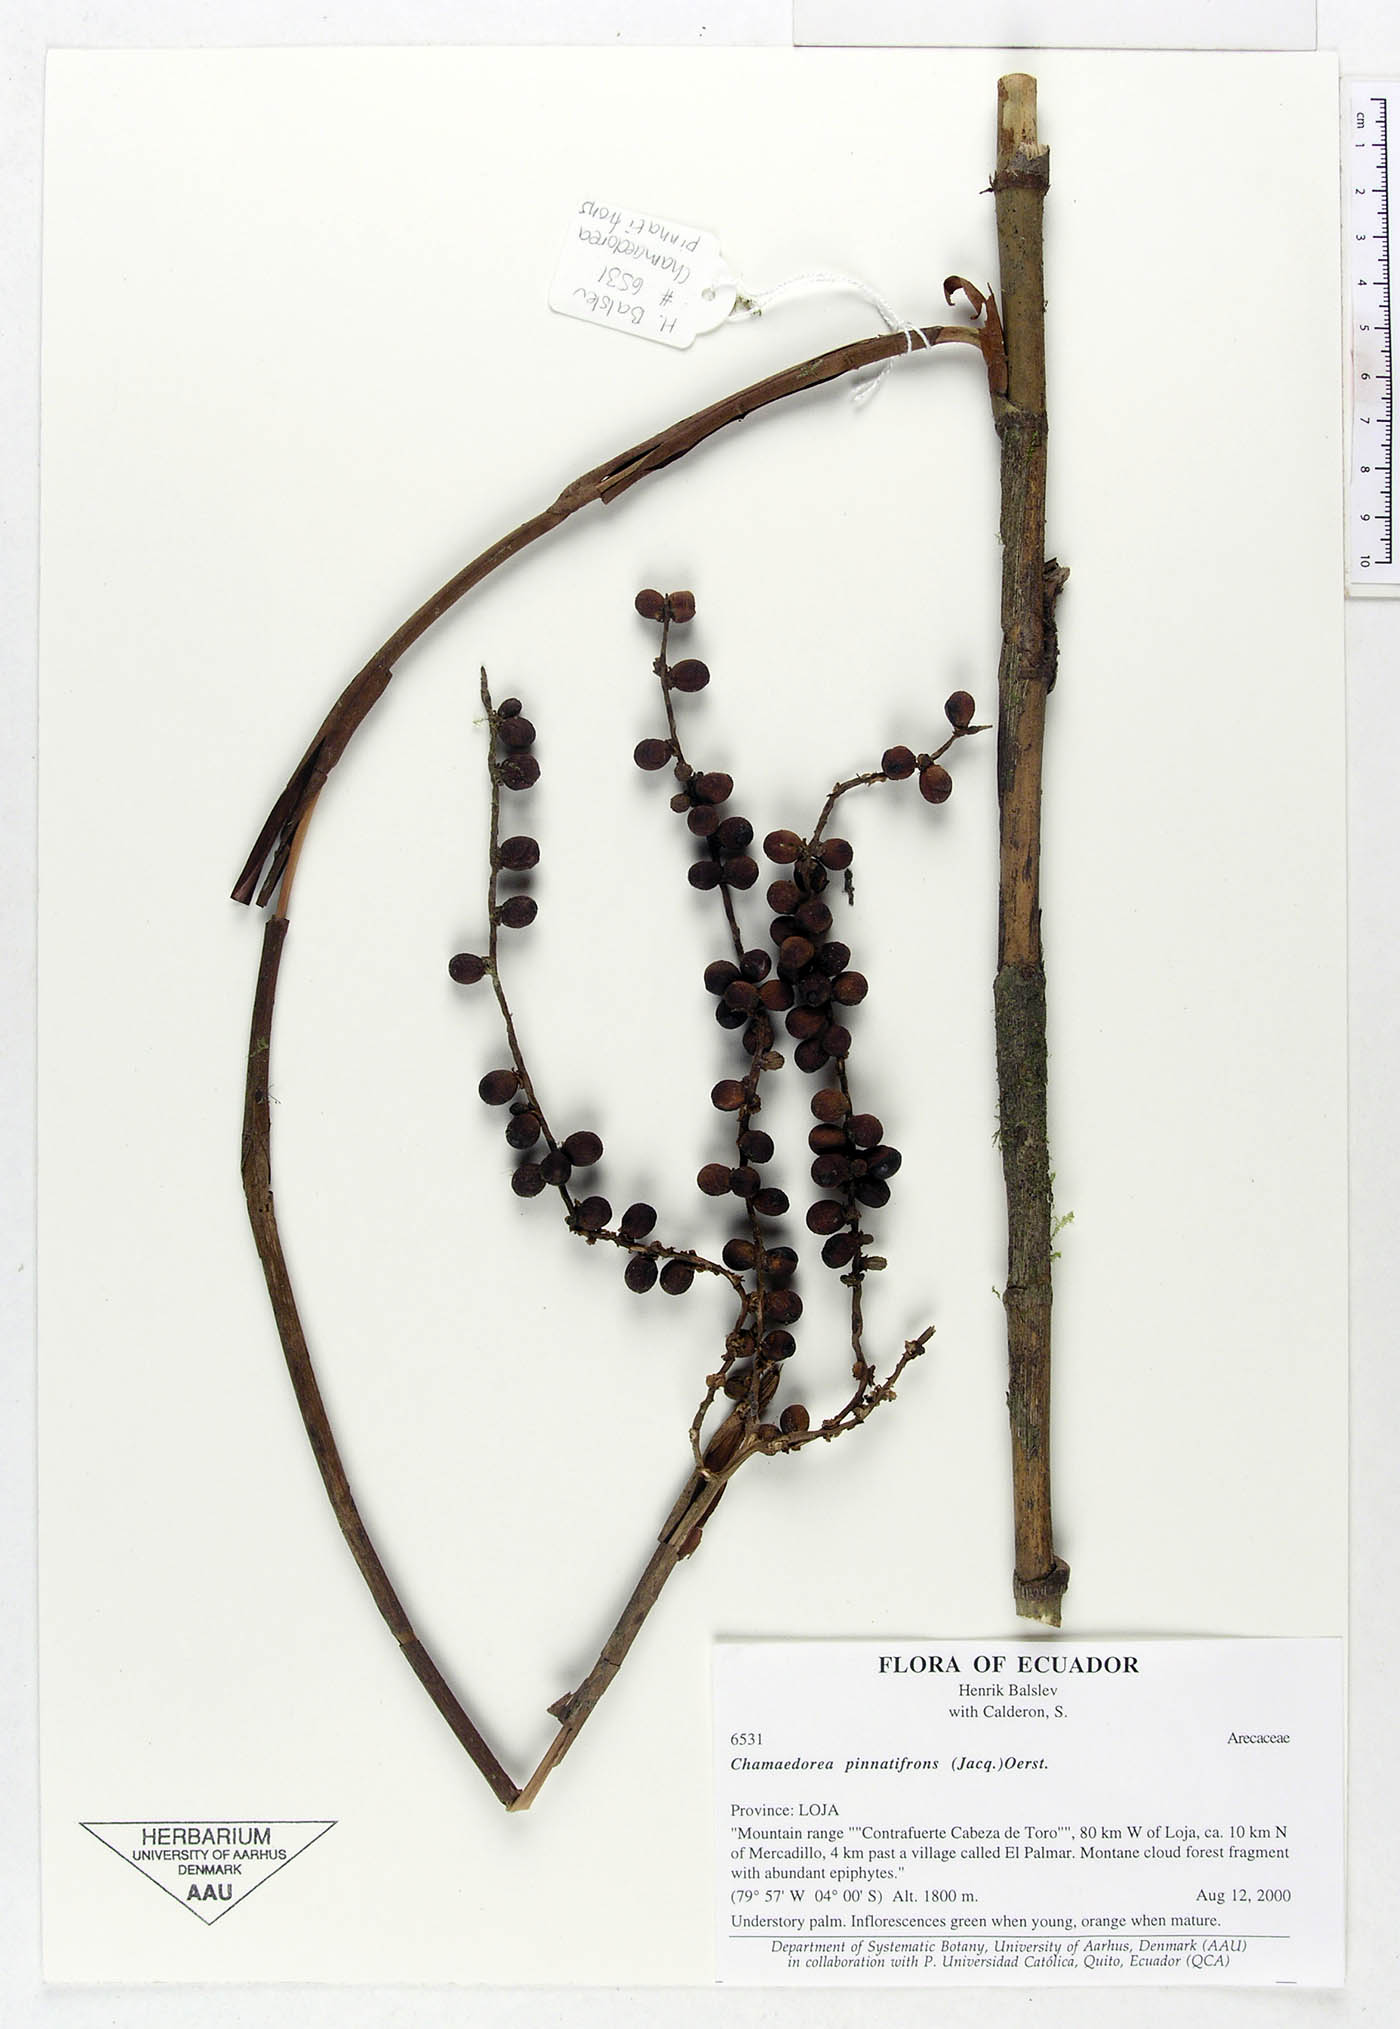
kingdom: Plantae
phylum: Tracheophyta
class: Liliopsida
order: Arecales
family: Arecaceae
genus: Chamaedorea
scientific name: Chamaedorea pinnatifrons
